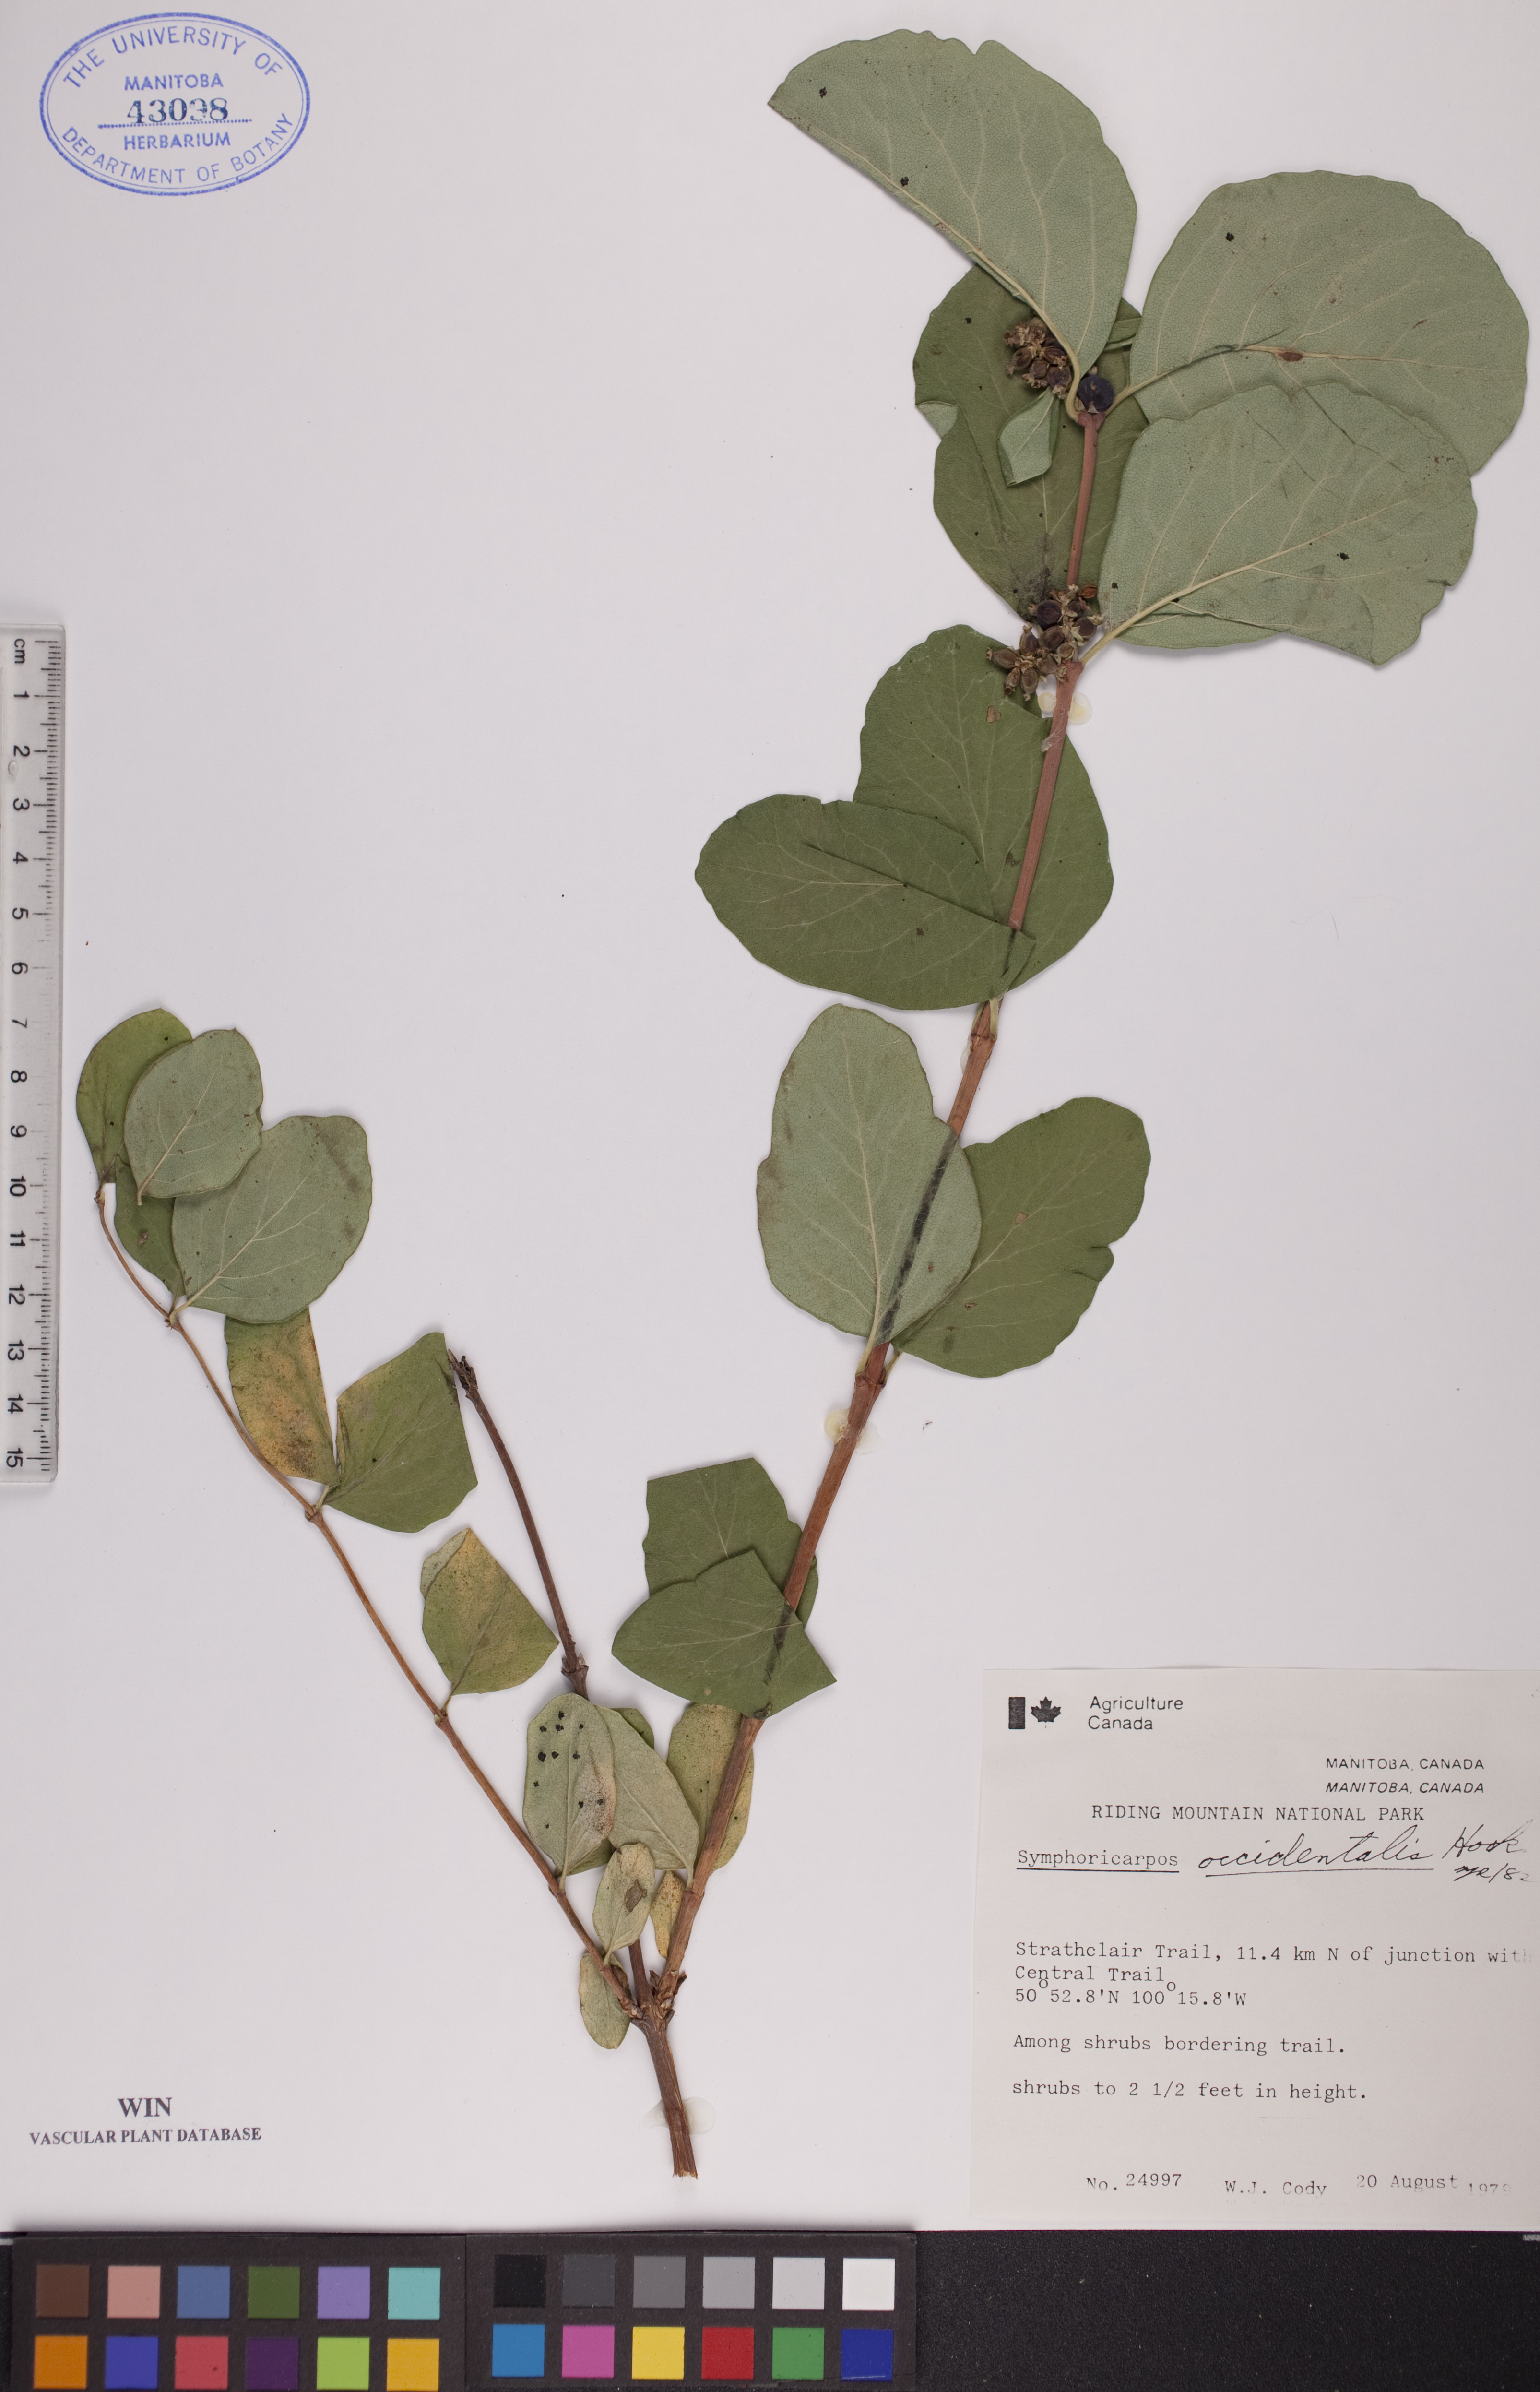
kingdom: Plantae
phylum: Tracheophyta
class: Magnoliopsida
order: Dipsacales
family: Caprifoliaceae
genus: Symphoricarpos
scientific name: Symphoricarpos occidentalis
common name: Wolfberry
